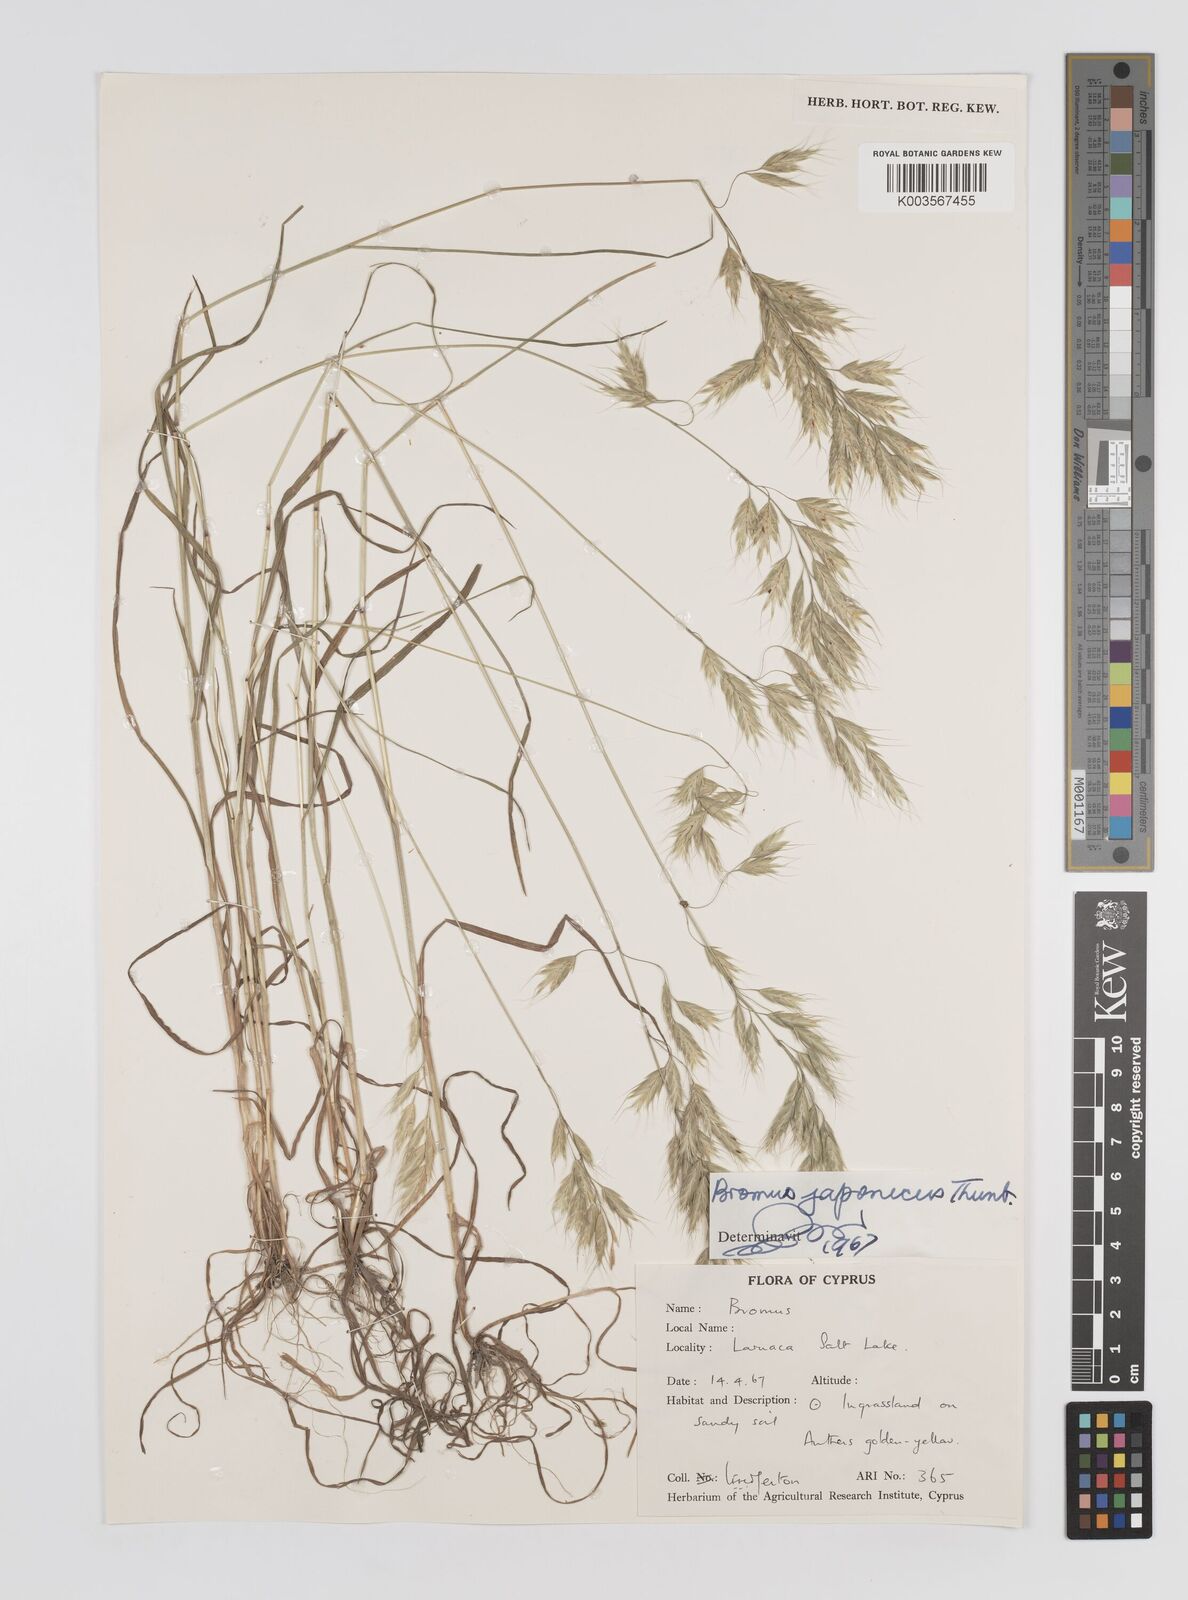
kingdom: Plantae
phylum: Tracheophyta
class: Liliopsida
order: Poales
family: Poaceae
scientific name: Poaceae
